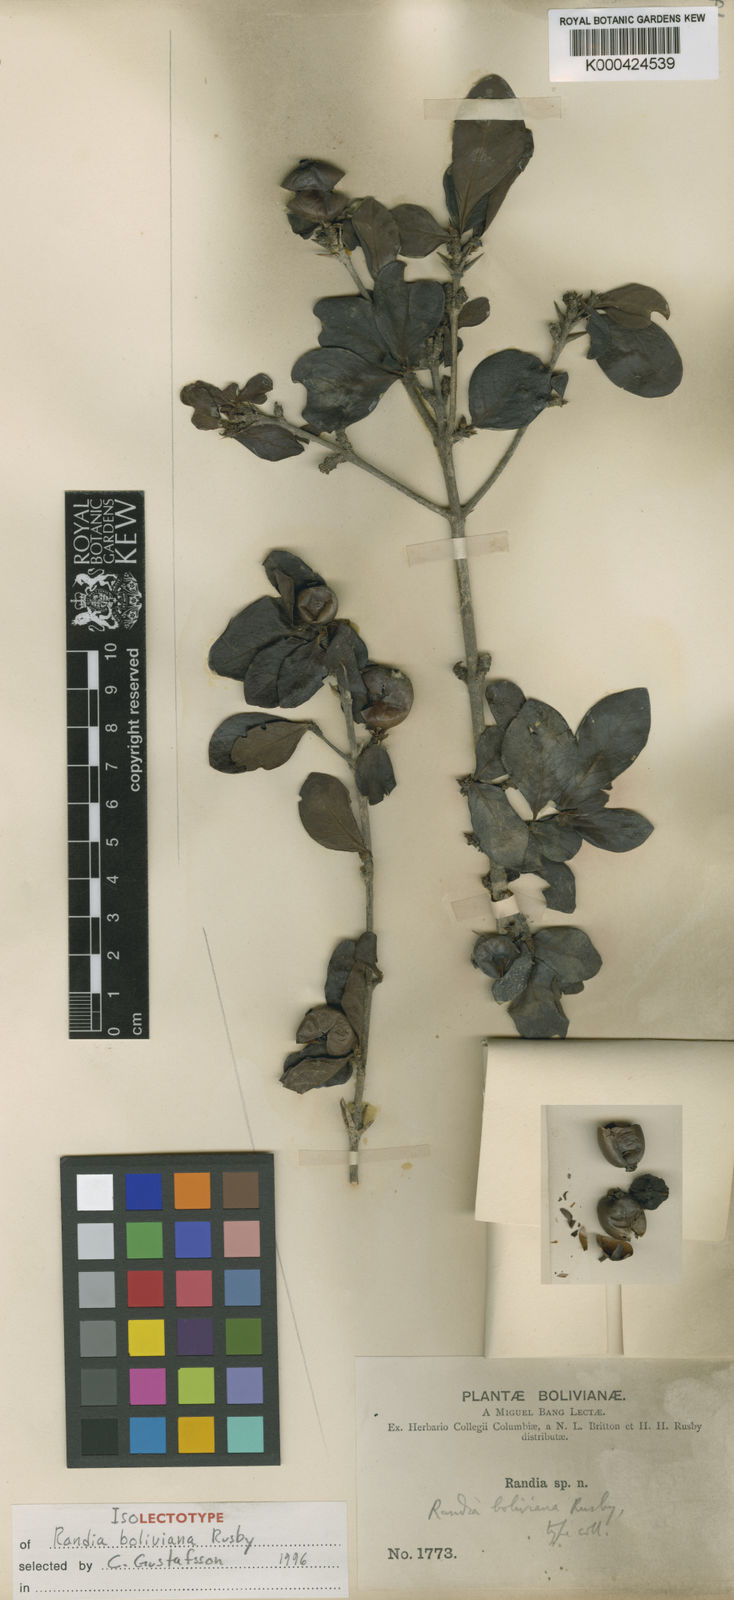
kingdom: Plantae
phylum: Tracheophyta
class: Magnoliopsida
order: Gentianales
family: Rubiaceae
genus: Randia
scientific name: Randia boliviana
